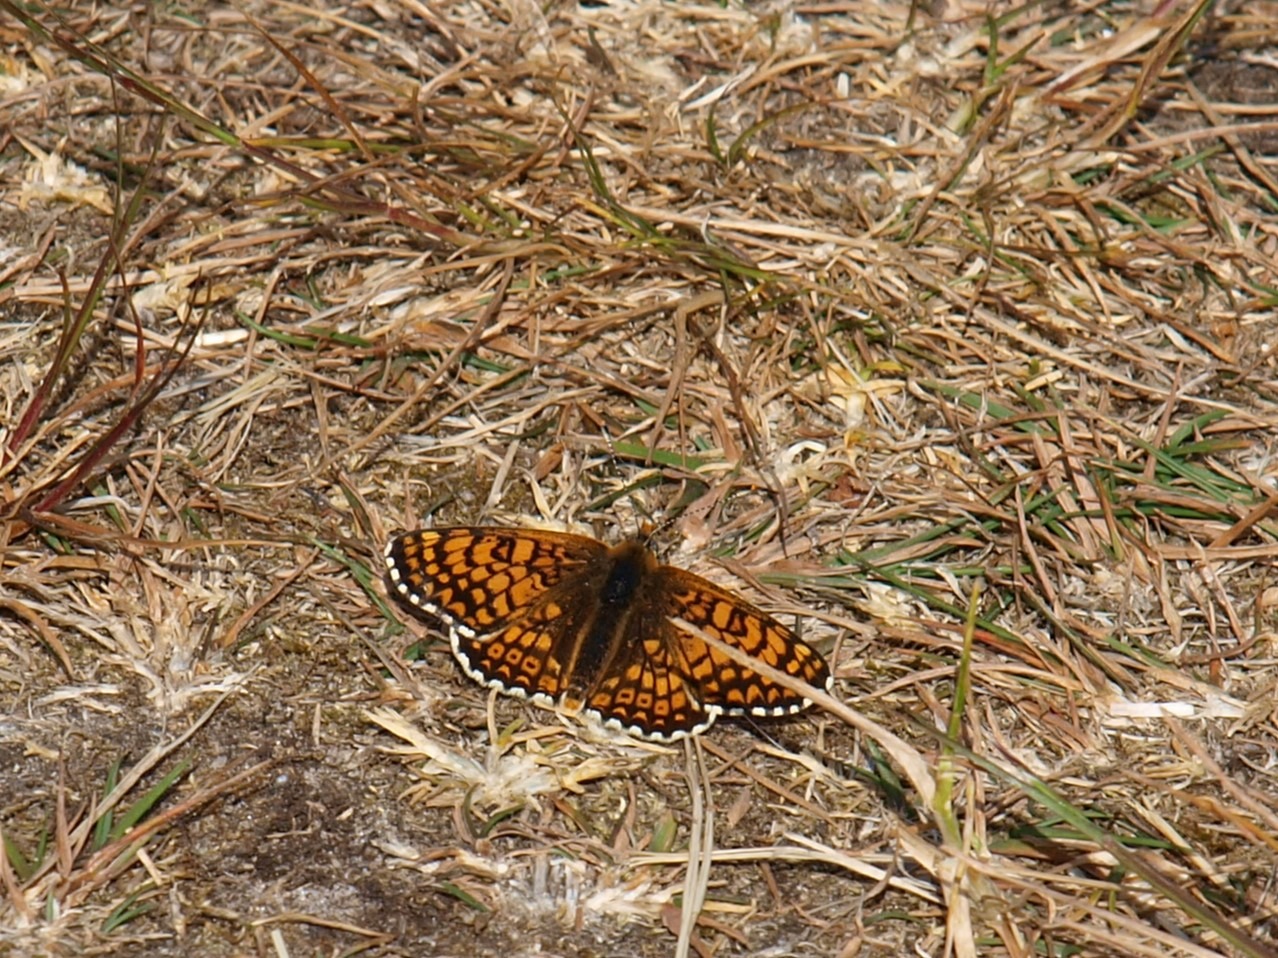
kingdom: Animalia
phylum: Arthropoda
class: Insecta
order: Lepidoptera
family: Nymphalidae
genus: Melitaea
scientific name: Melitaea cinxia
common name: Okkergul pletvinge
